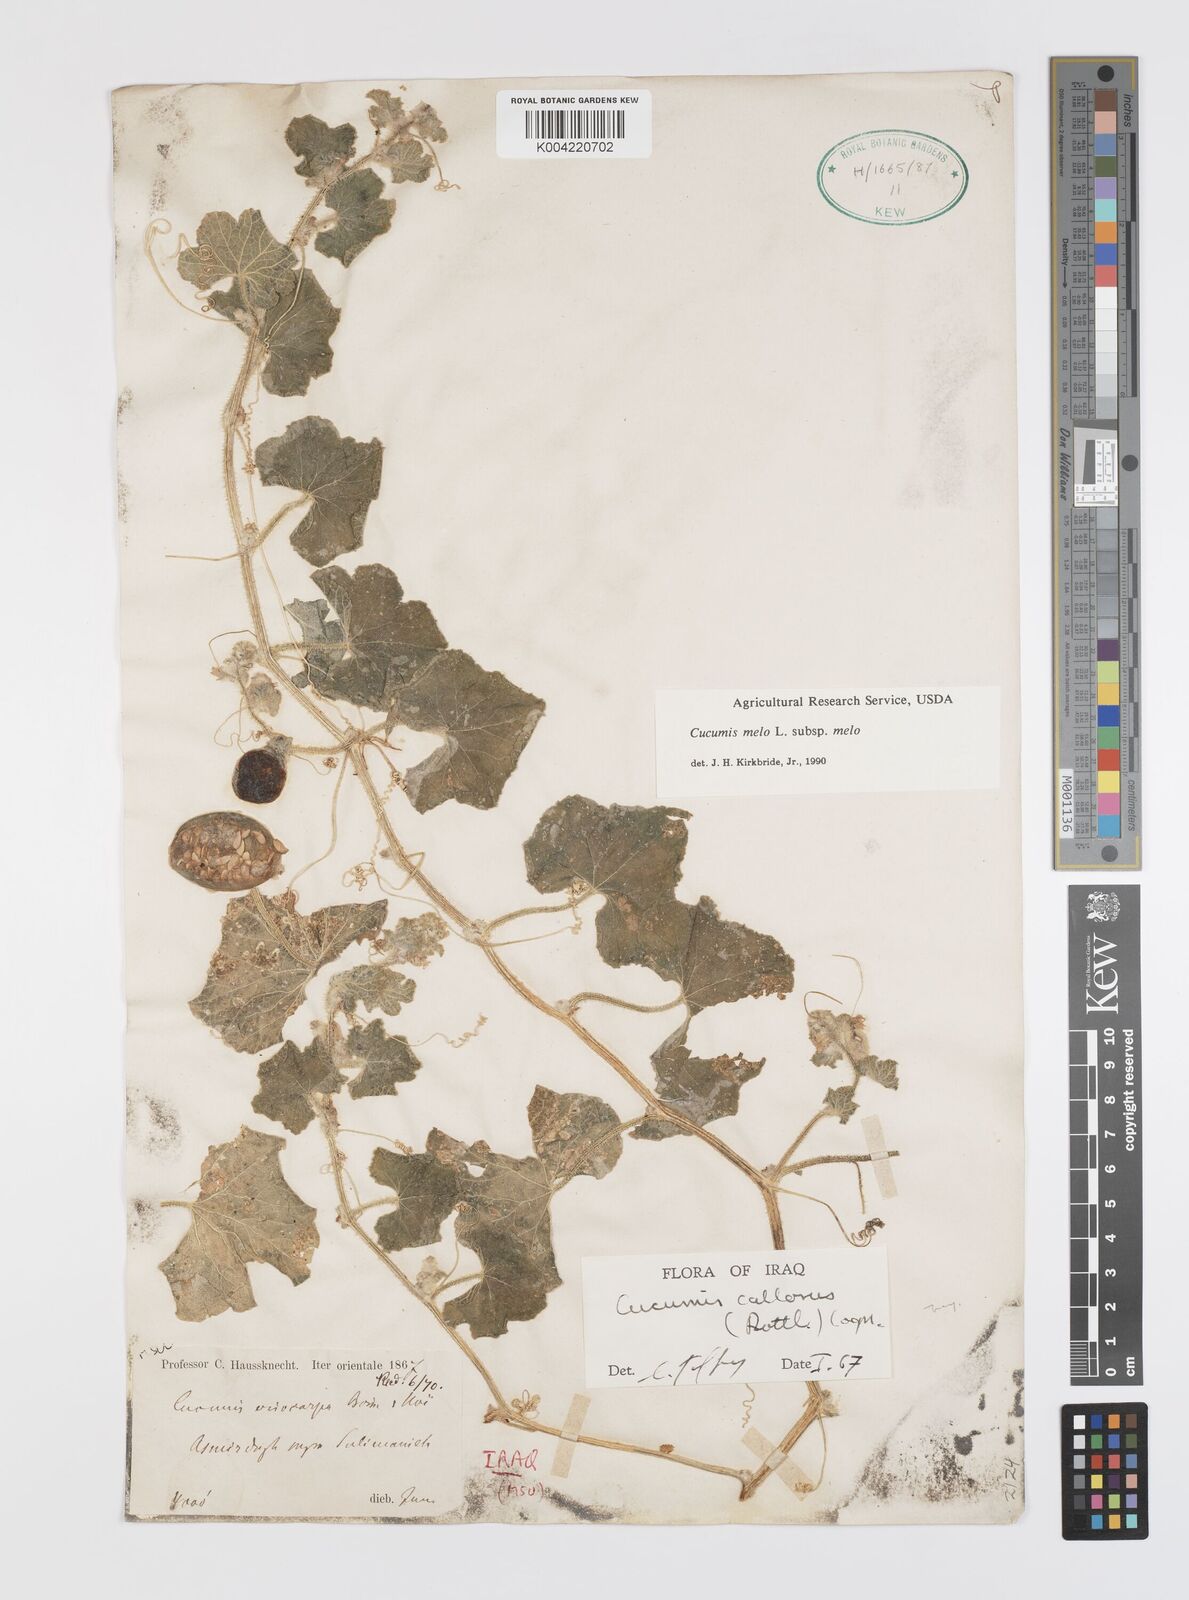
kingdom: Plantae
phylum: Tracheophyta
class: Magnoliopsida
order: Cucurbitales
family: Cucurbitaceae
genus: Cucumis
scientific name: Cucumis melo
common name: Melon
